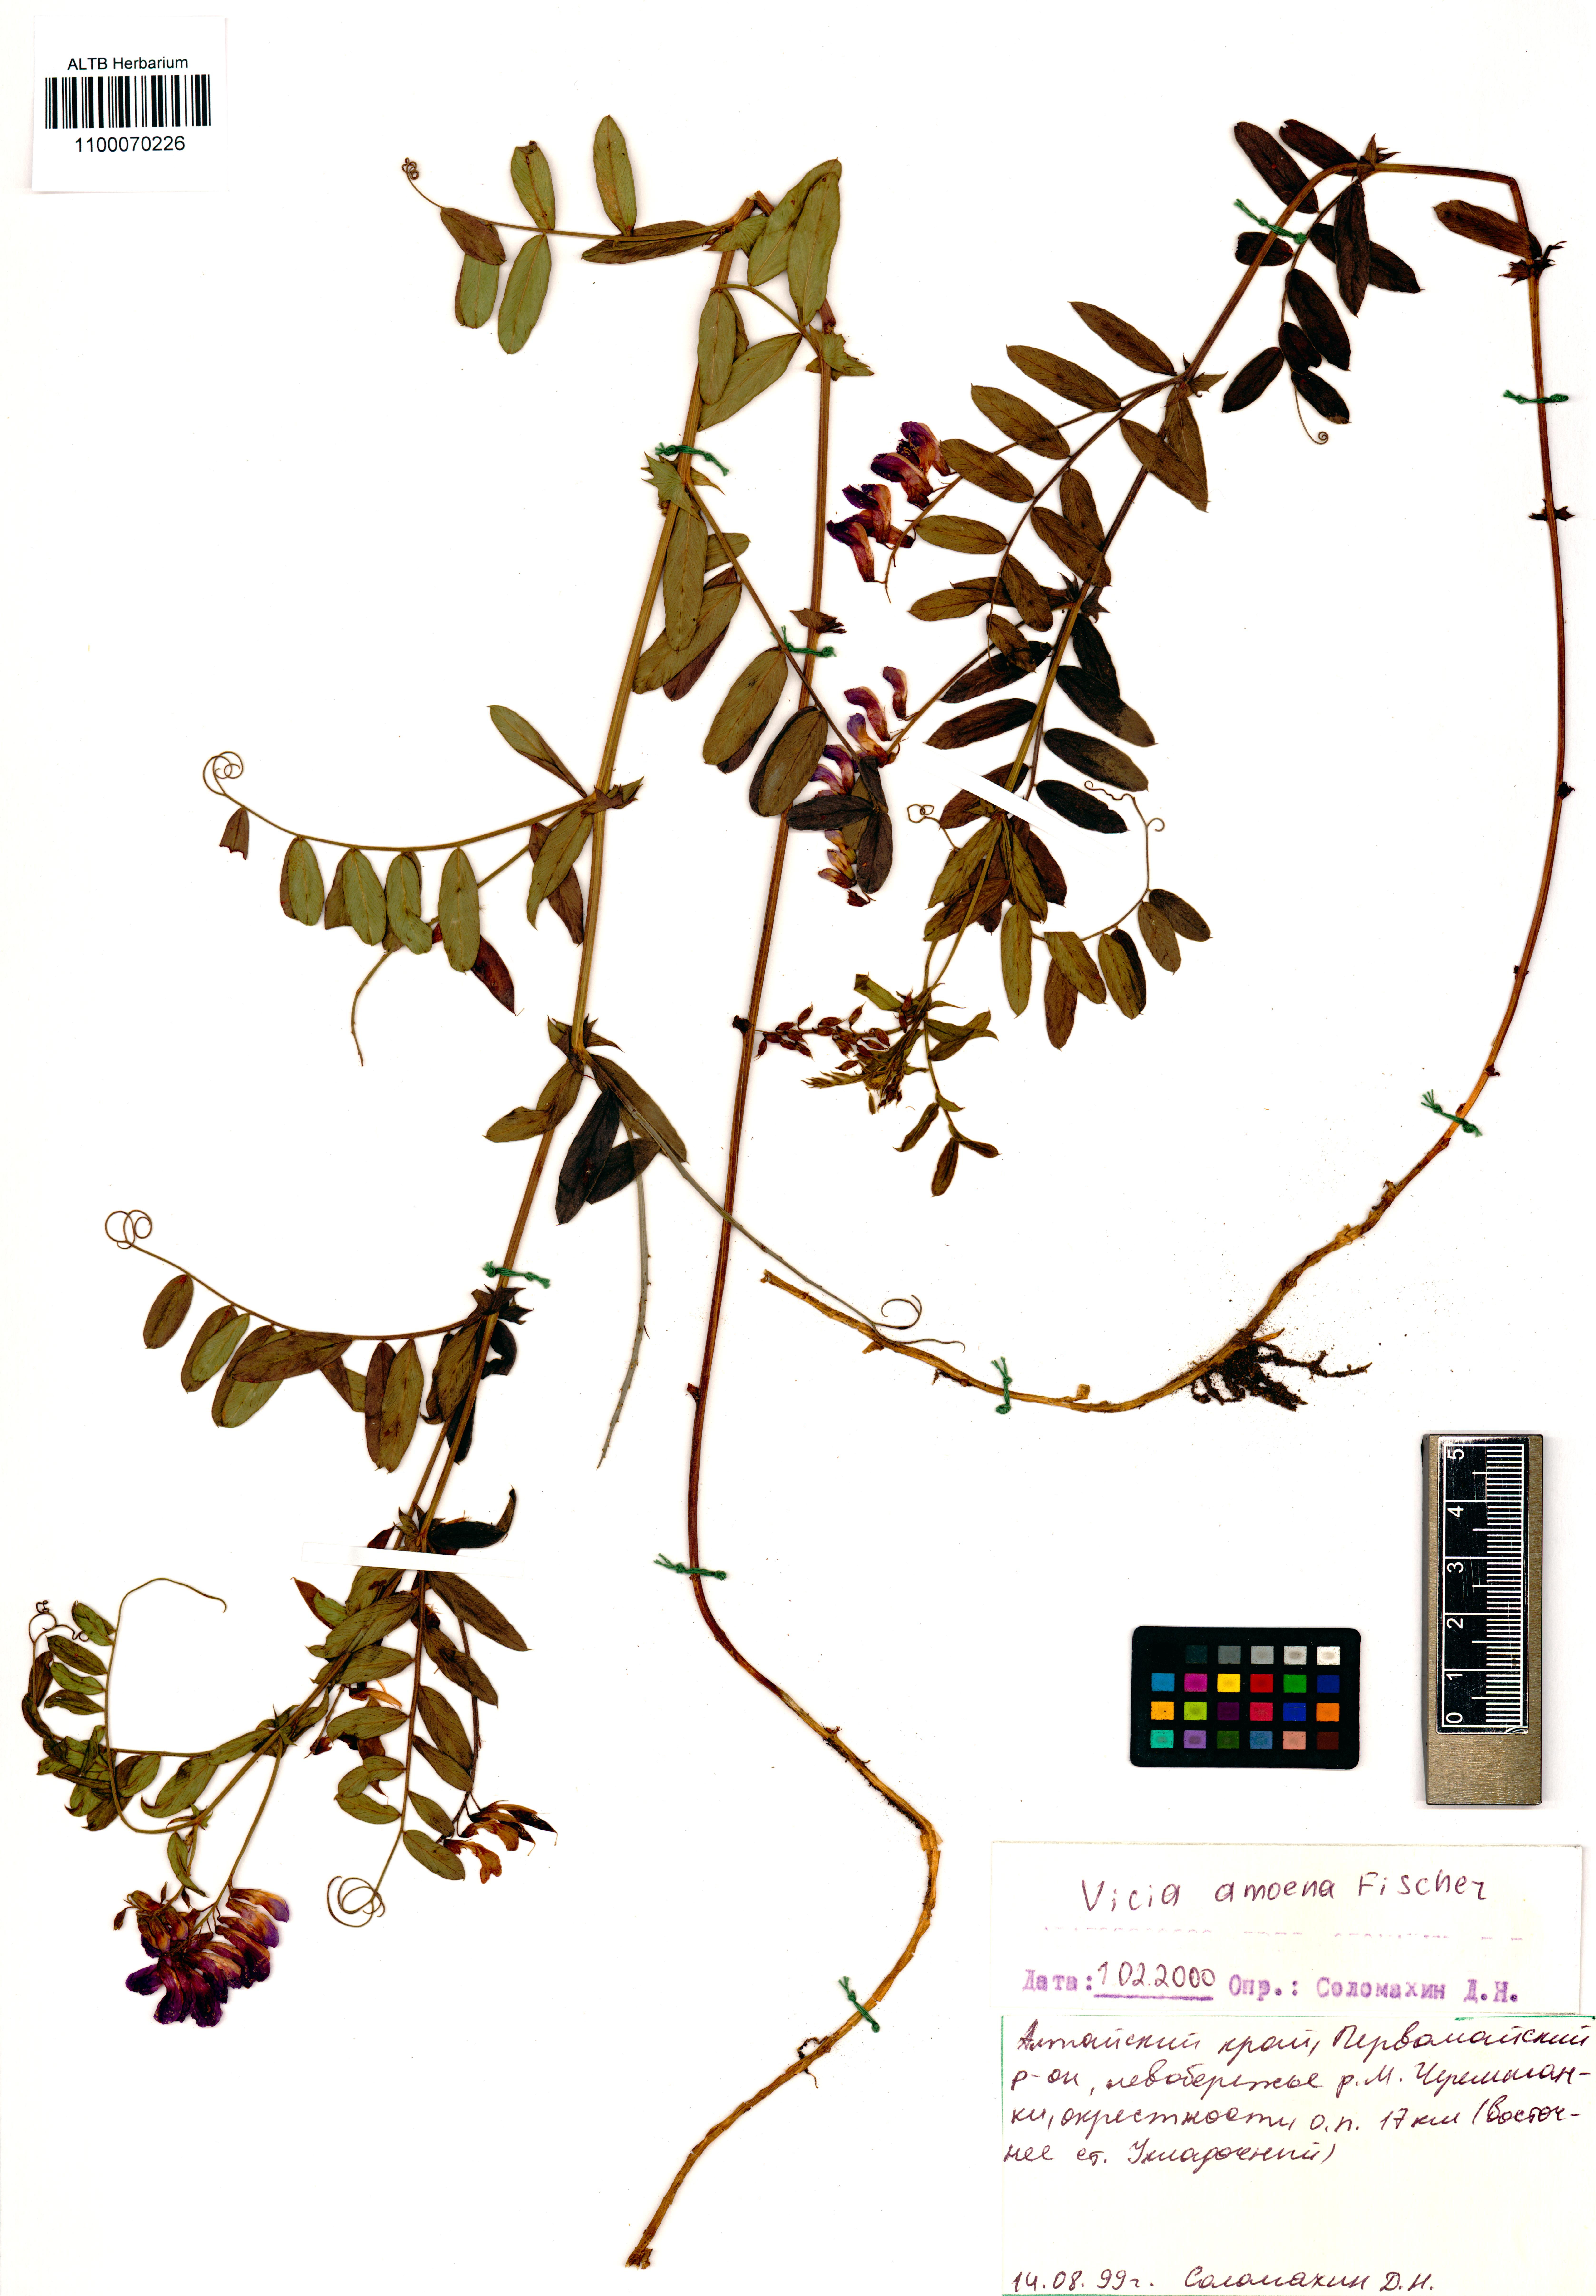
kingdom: Plantae
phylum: Tracheophyta
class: Magnoliopsida
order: Fabales
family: Fabaceae
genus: Vicia
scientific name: Vicia amoena
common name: Cheder ebs
